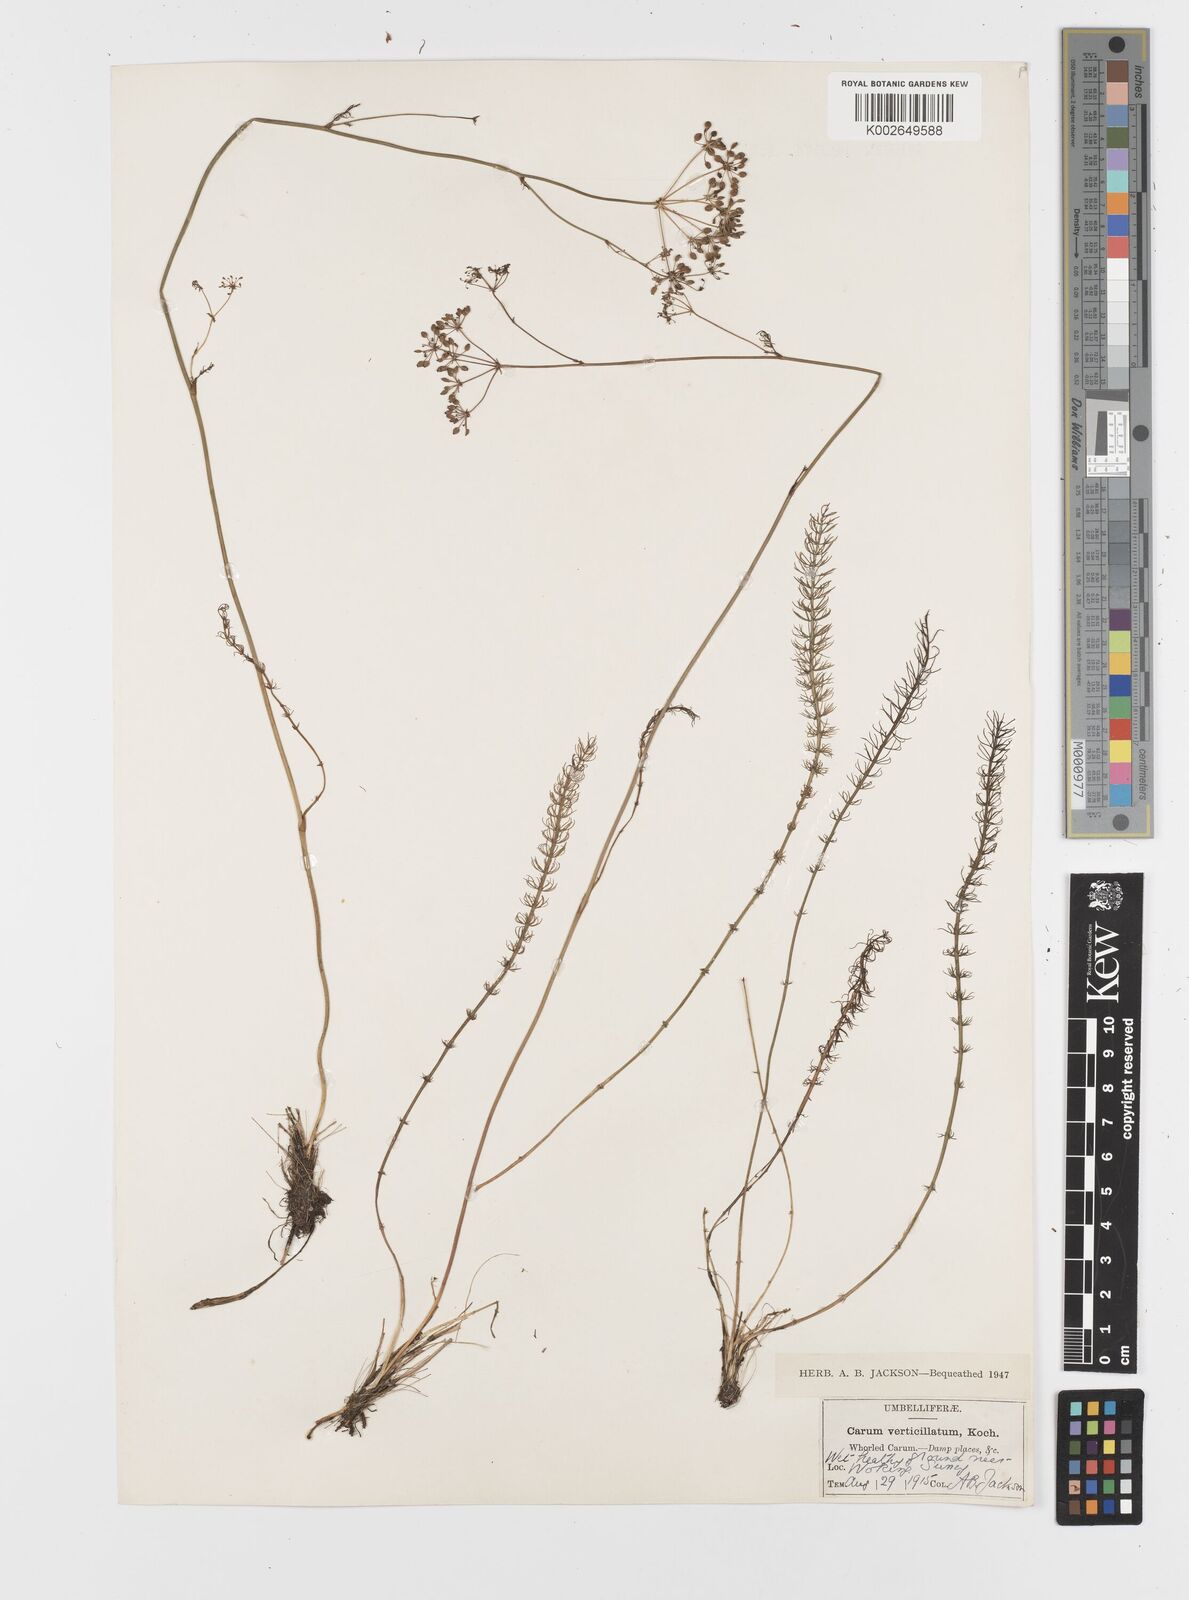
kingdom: Plantae
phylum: Tracheophyta
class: Magnoliopsida
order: Apiales
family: Apiaceae
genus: Trocdaris
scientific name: Trocdaris verticillatum
